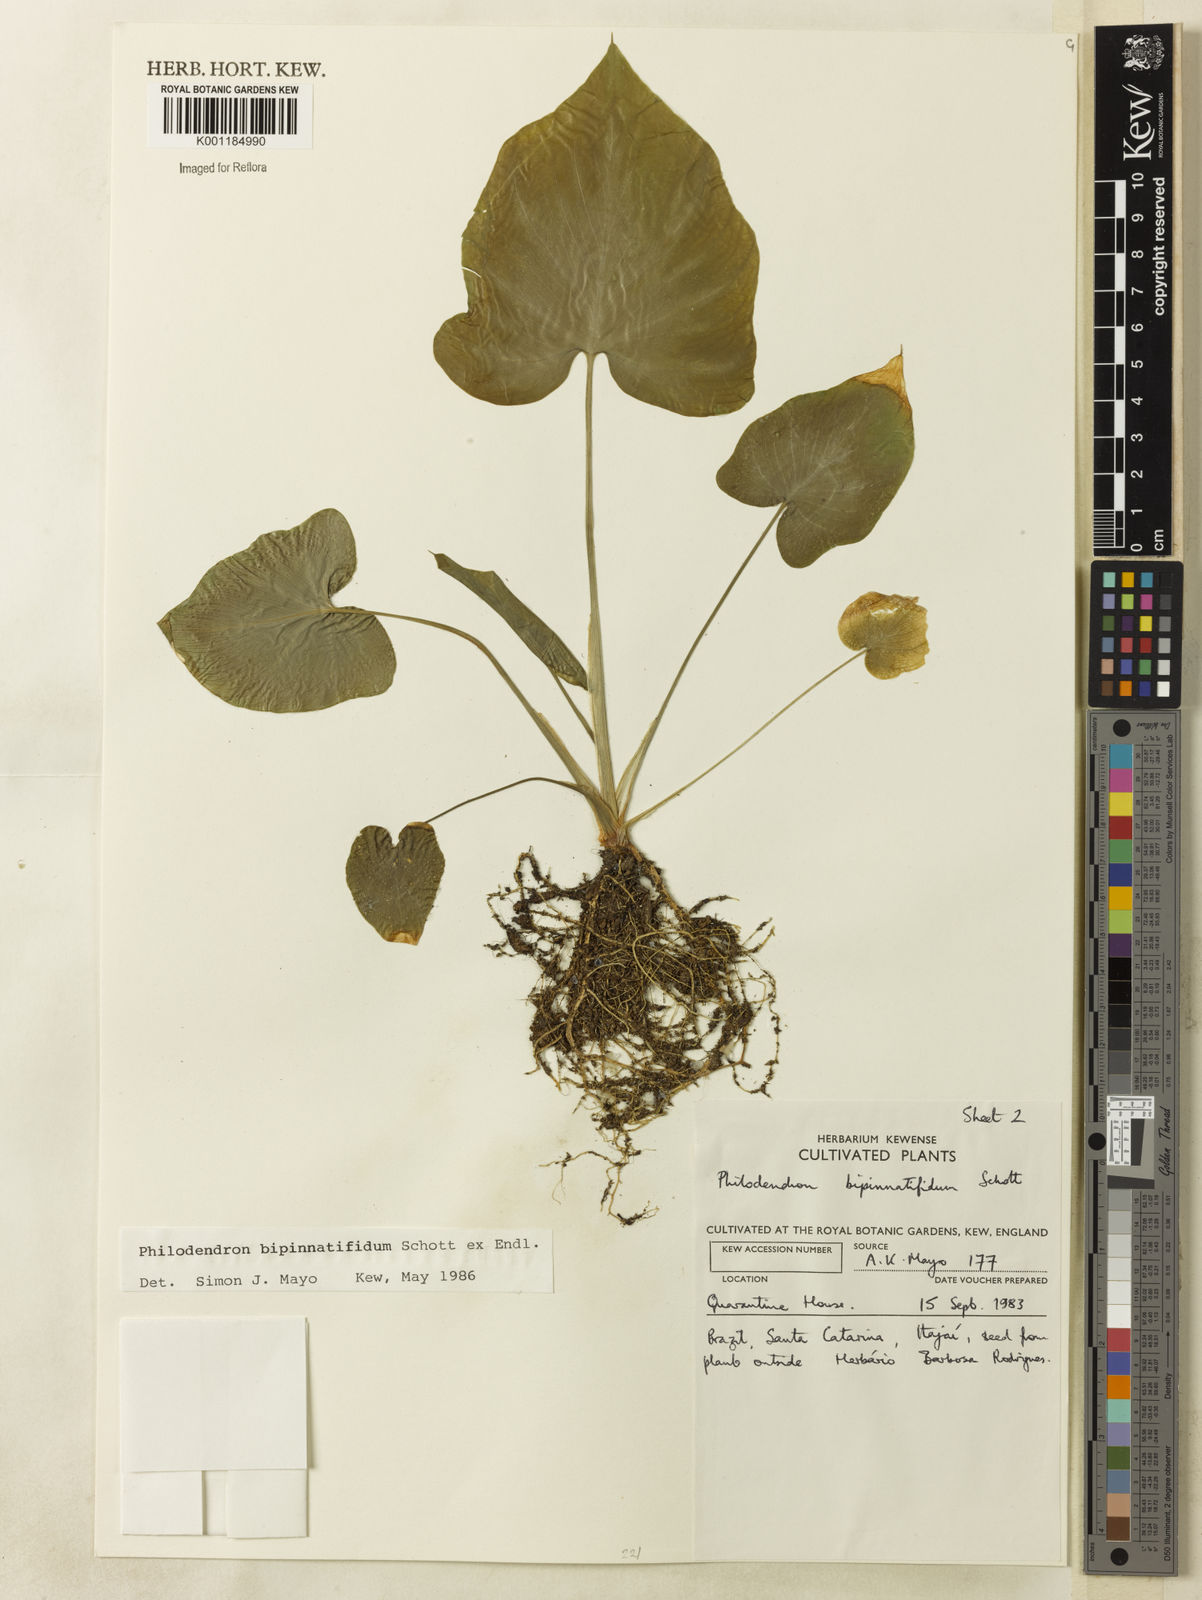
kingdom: Plantae
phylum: Tracheophyta
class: Liliopsida
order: Alismatales
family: Araceae
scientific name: Araceae
